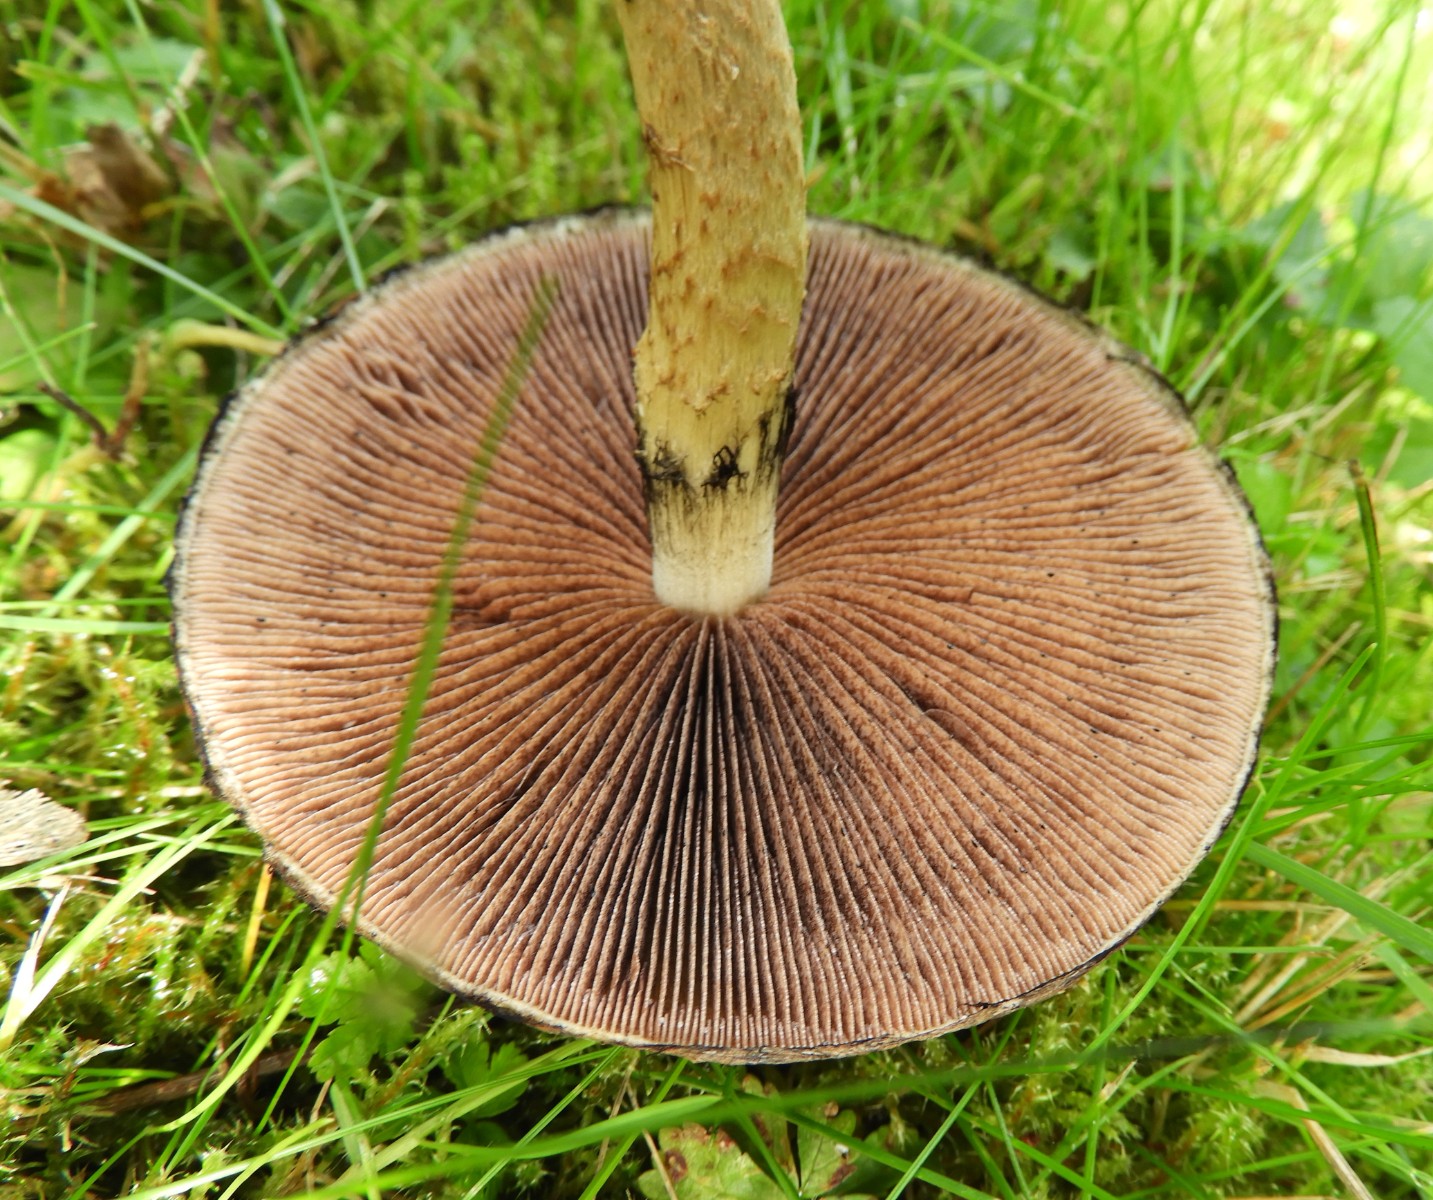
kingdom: Fungi
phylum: Basidiomycota
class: Agaricomycetes
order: Agaricales
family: Psathyrellaceae
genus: Lacrymaria
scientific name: Lacrymaria lacrymabunda
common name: grædende mørkhat
